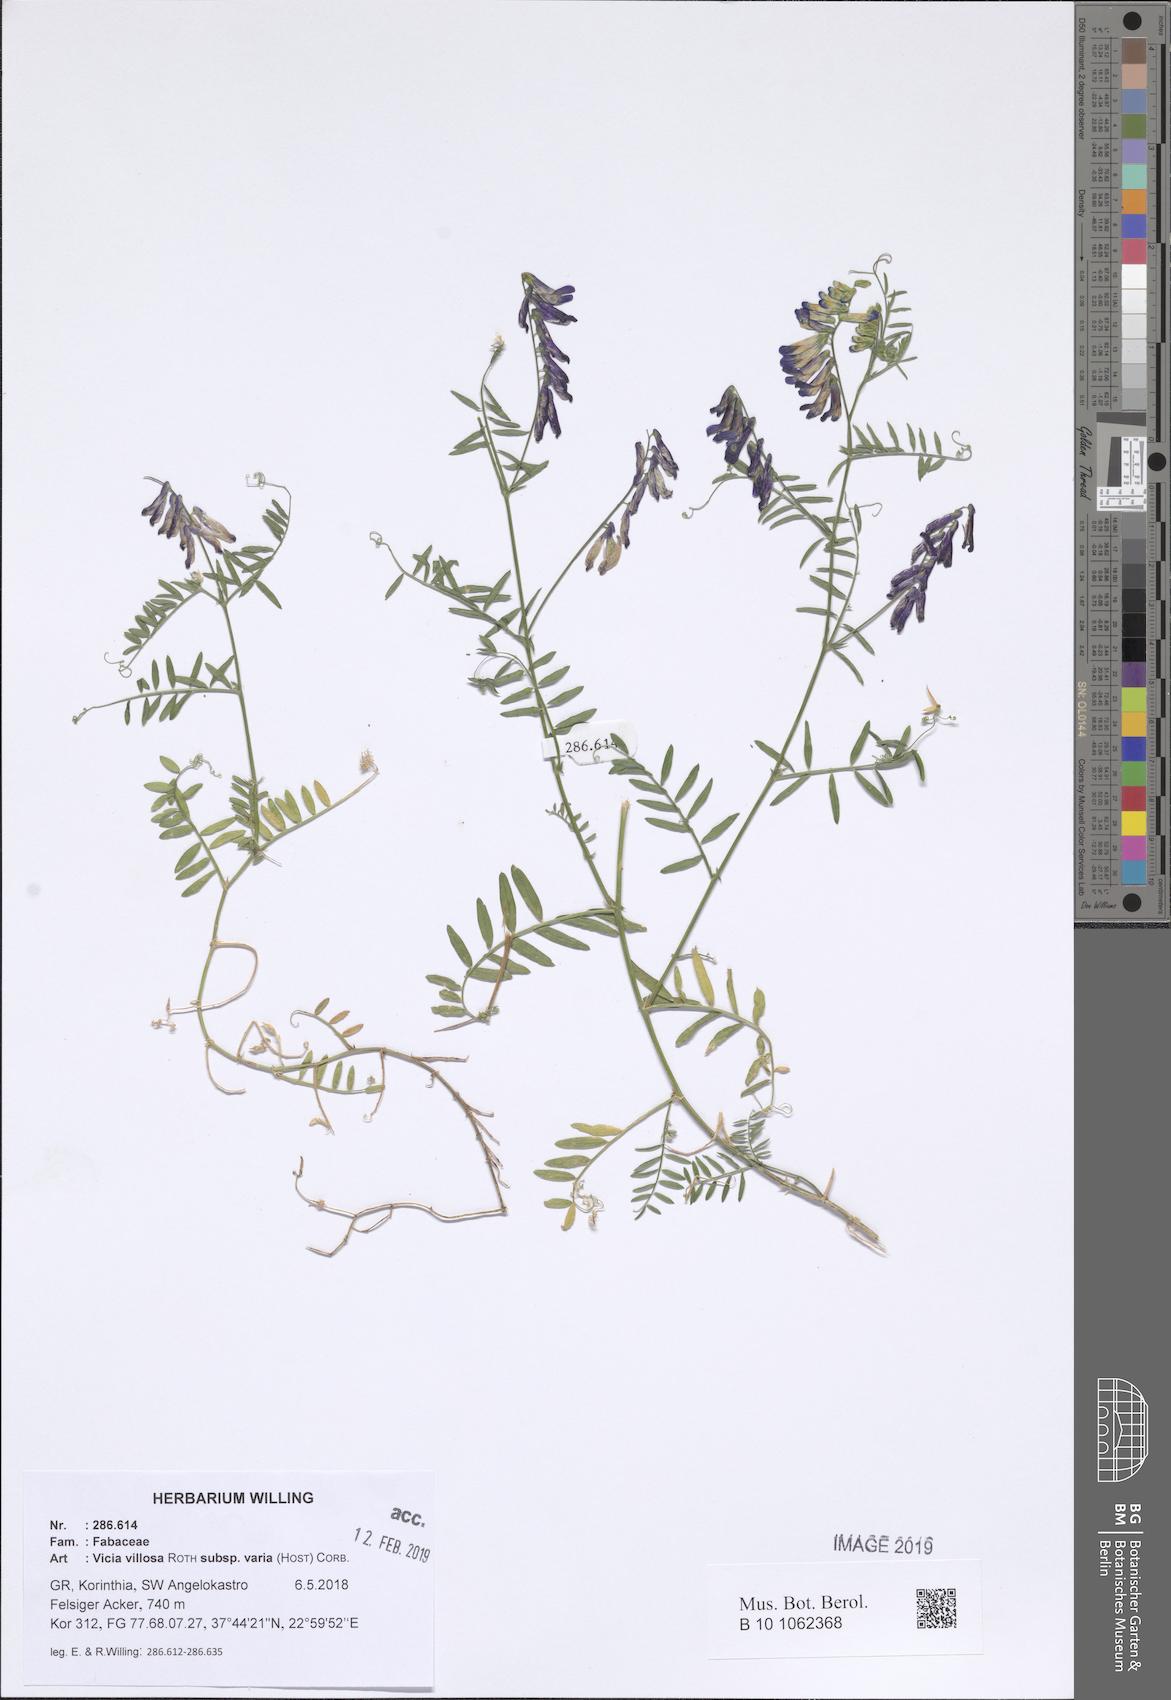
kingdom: Plantae
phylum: Tracheophyta
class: Magnoliopsida
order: Fabales
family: Fabaceae
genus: Vicia
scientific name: Vicia villosa
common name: Fodder vetch
